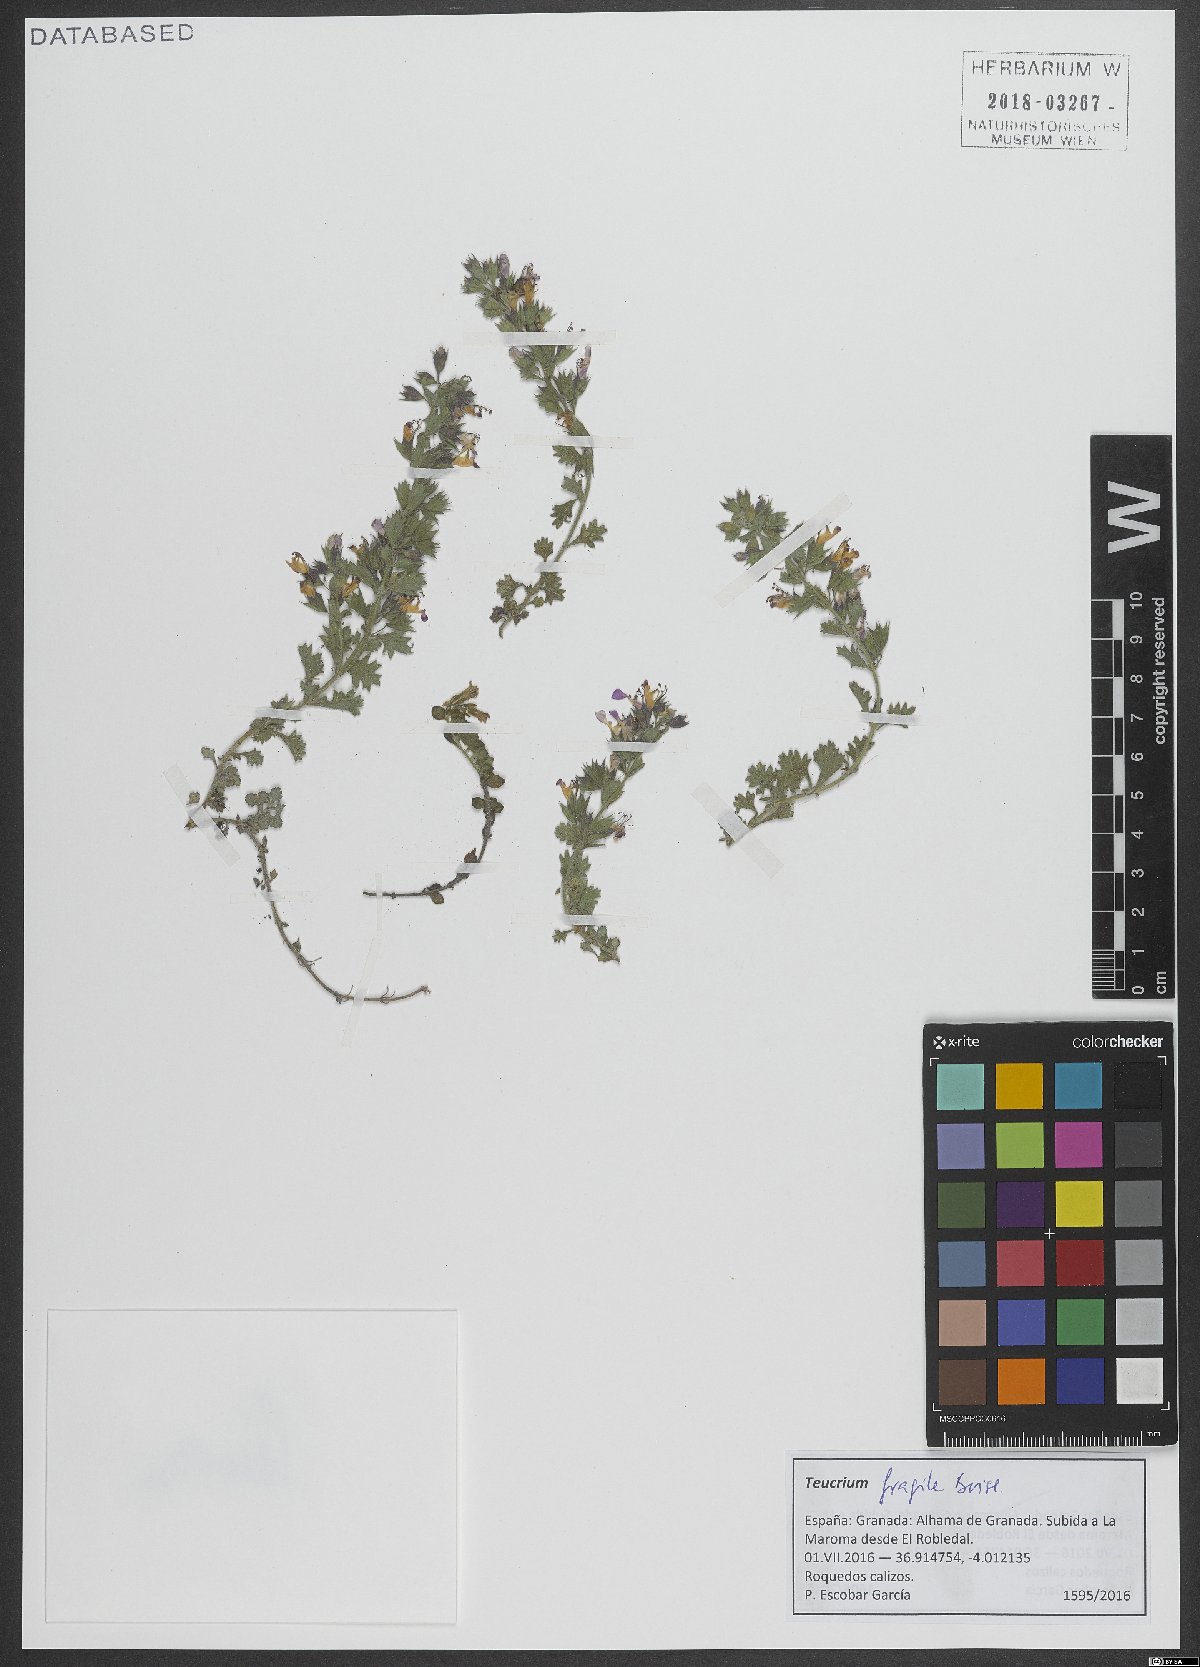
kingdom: Plantae
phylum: Tracheophyta
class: Magnoliopsida
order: Lamiales
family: Lamiaceae
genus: Teucrium
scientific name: Teucrium fragile
